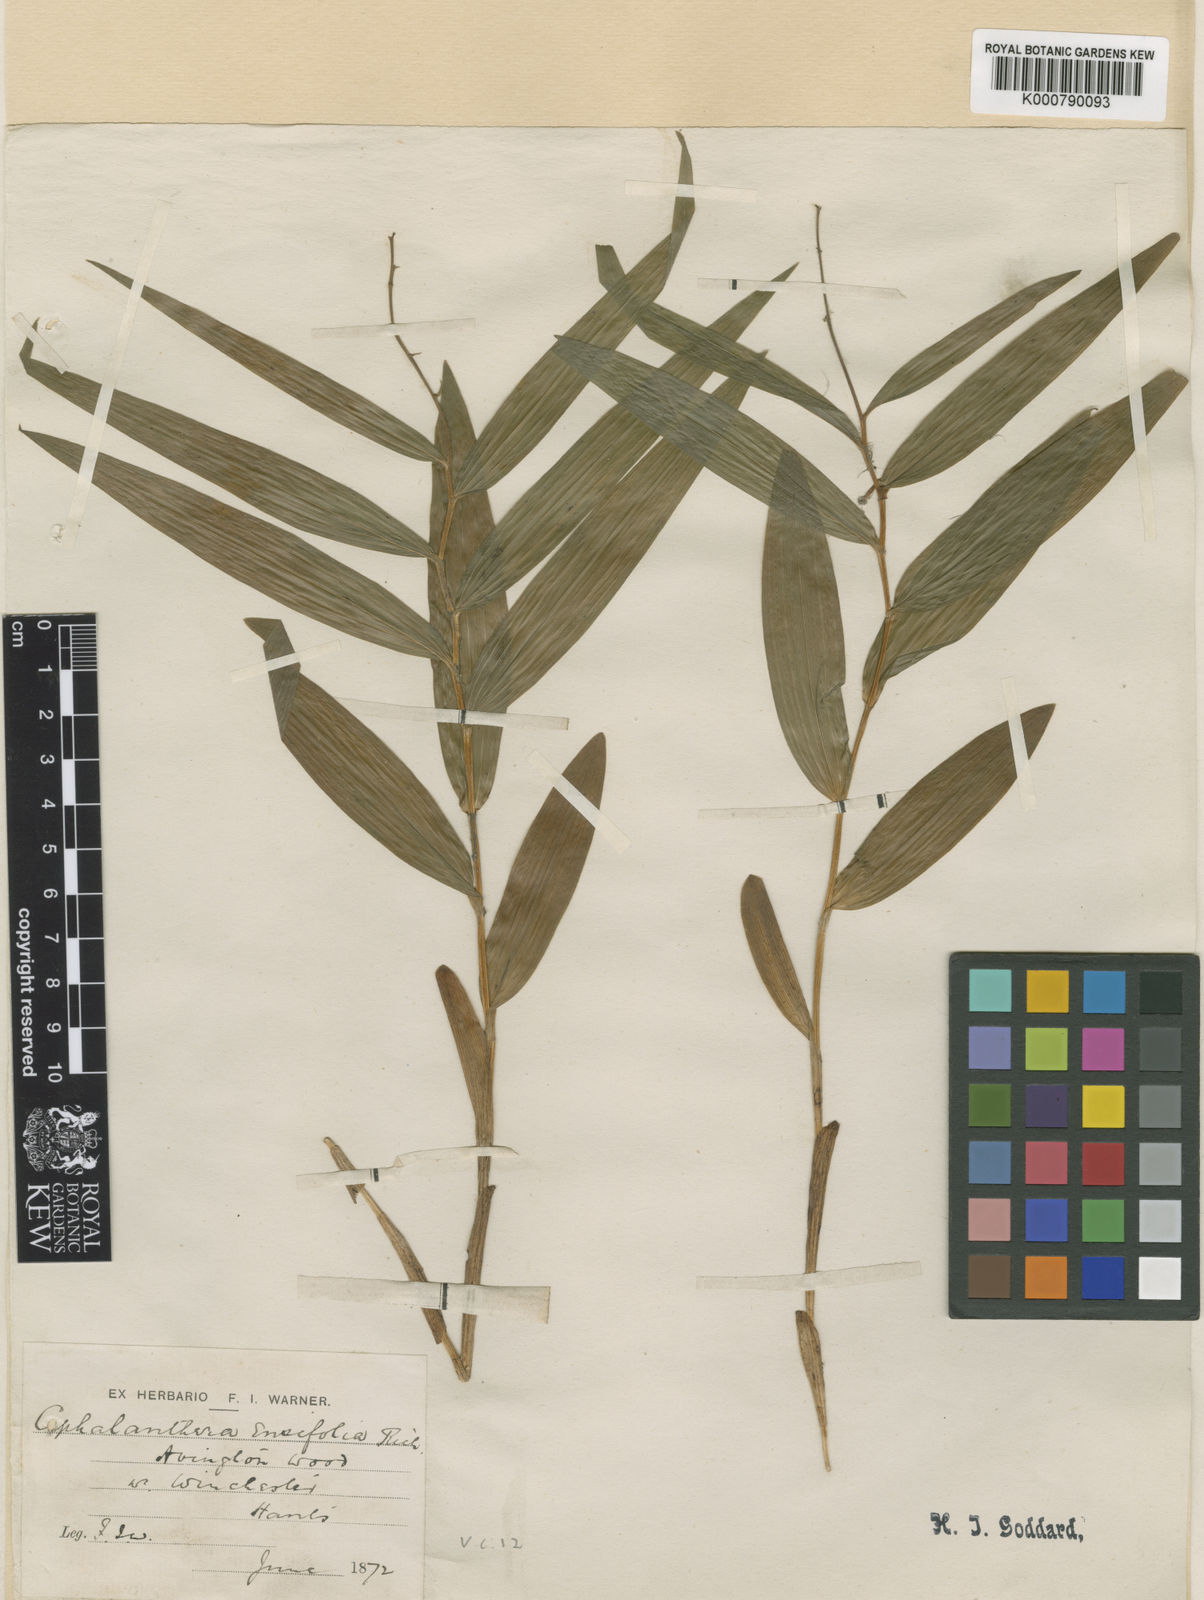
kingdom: Plantae
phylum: Tracheophyta
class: Liliopsida
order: Asparagales
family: Orchidaceae
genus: Cephalanthera
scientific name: Cephalanthera longifolia
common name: Narrow-leaved helleborine
